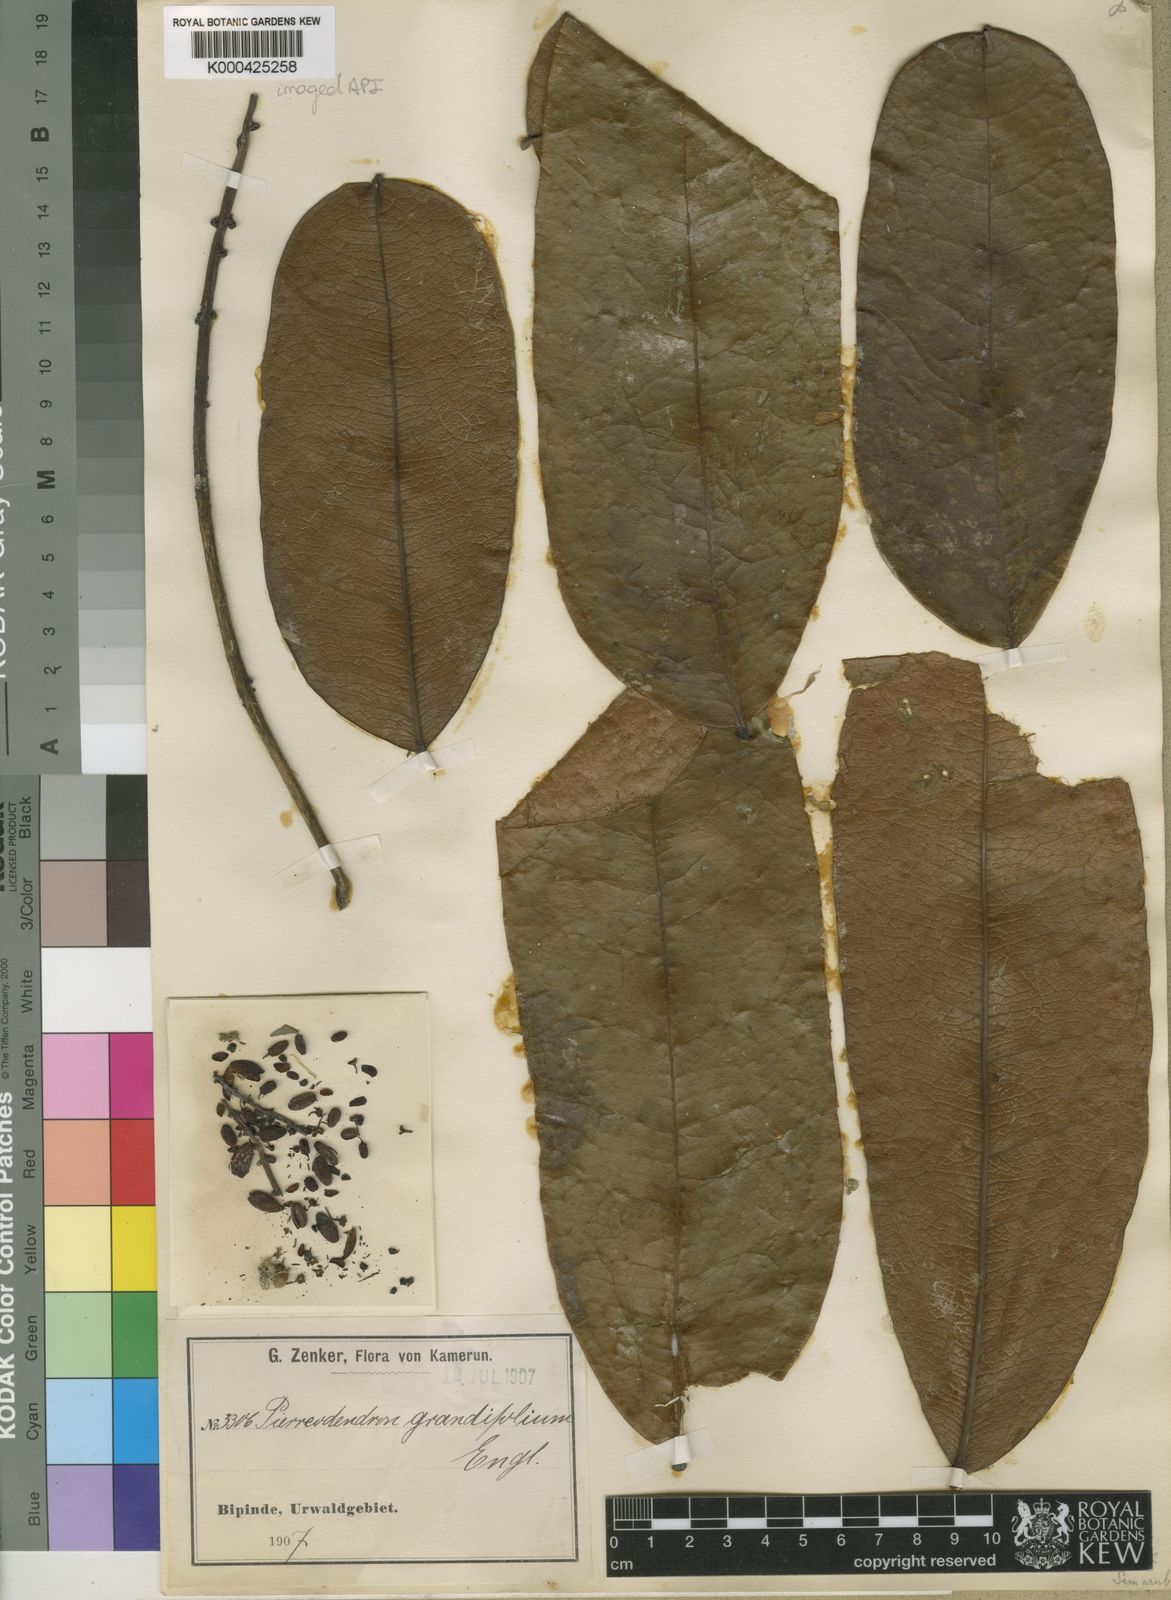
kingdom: Plantae
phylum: Tracheophyta
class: Magnoliopsida
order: Sapindales
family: Simaroubaceae
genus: Simaba
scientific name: Simaba grandifolia
